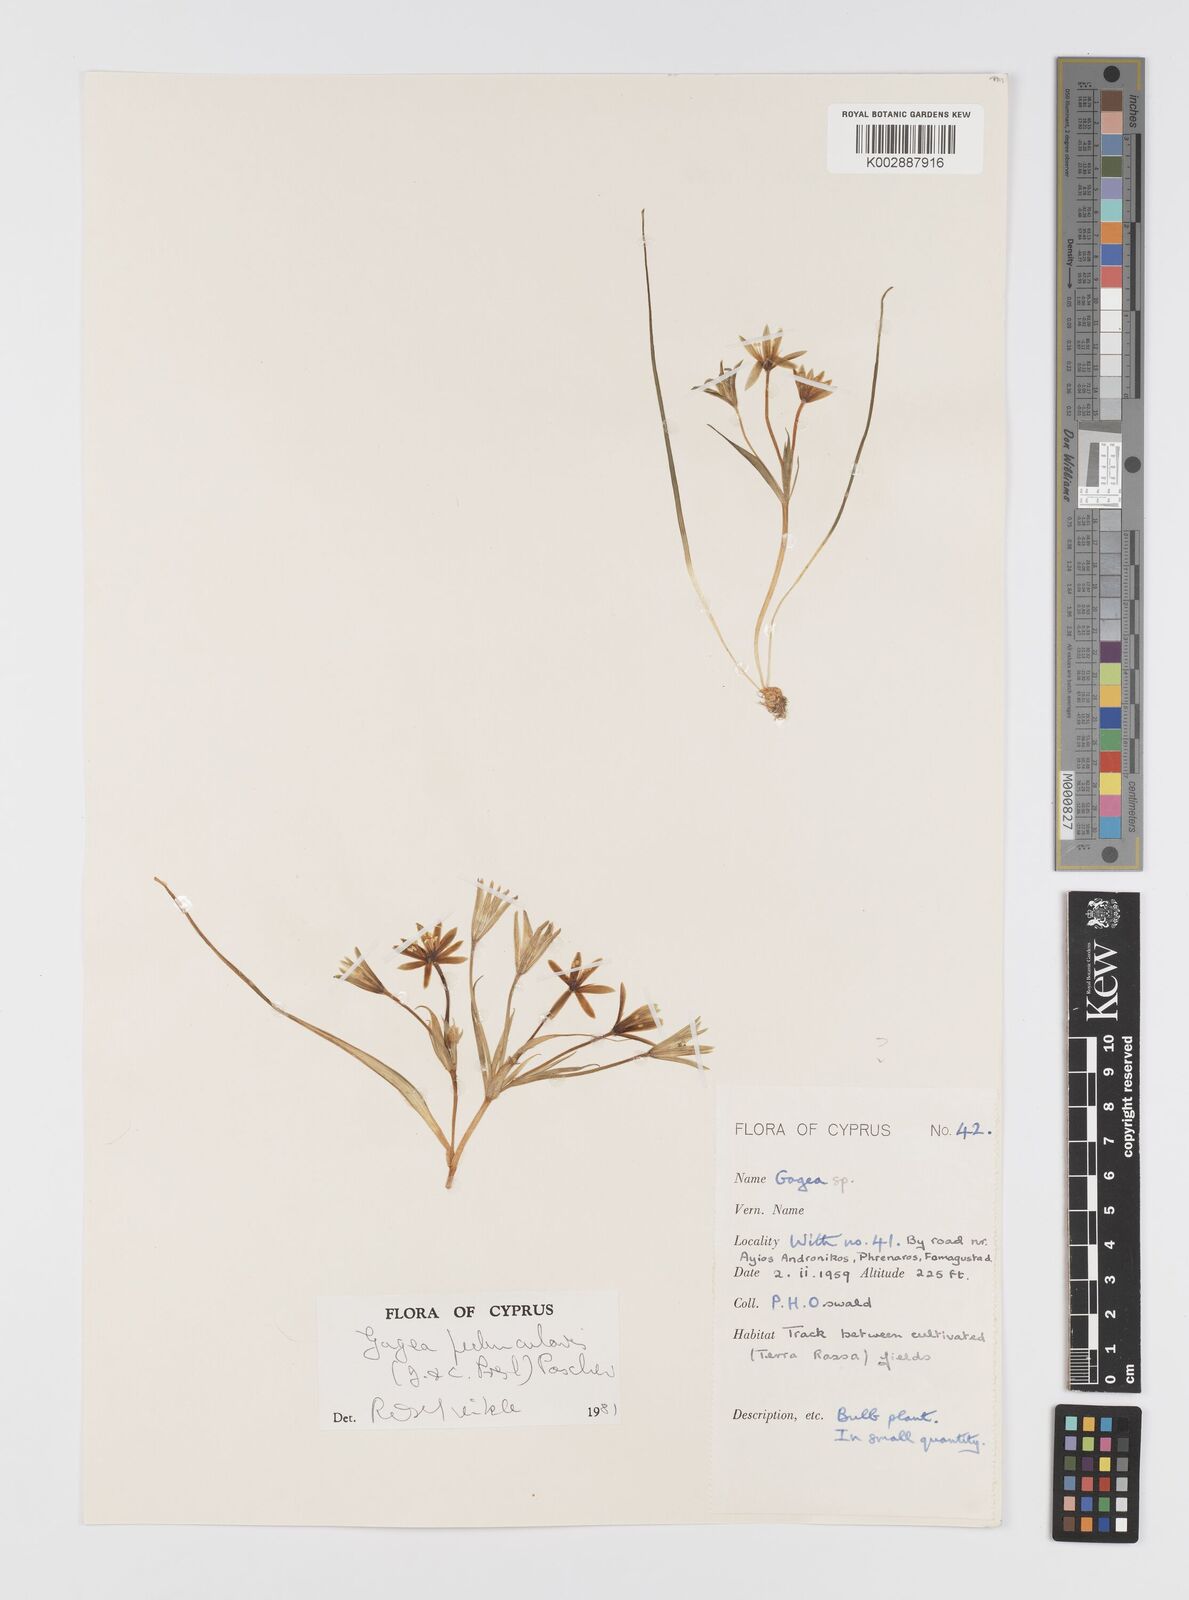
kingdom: Plantae
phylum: Tracheophyta
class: Liliopsida
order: Liliales
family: Liliaceae
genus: Gagea
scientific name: Gagea peduncularis
